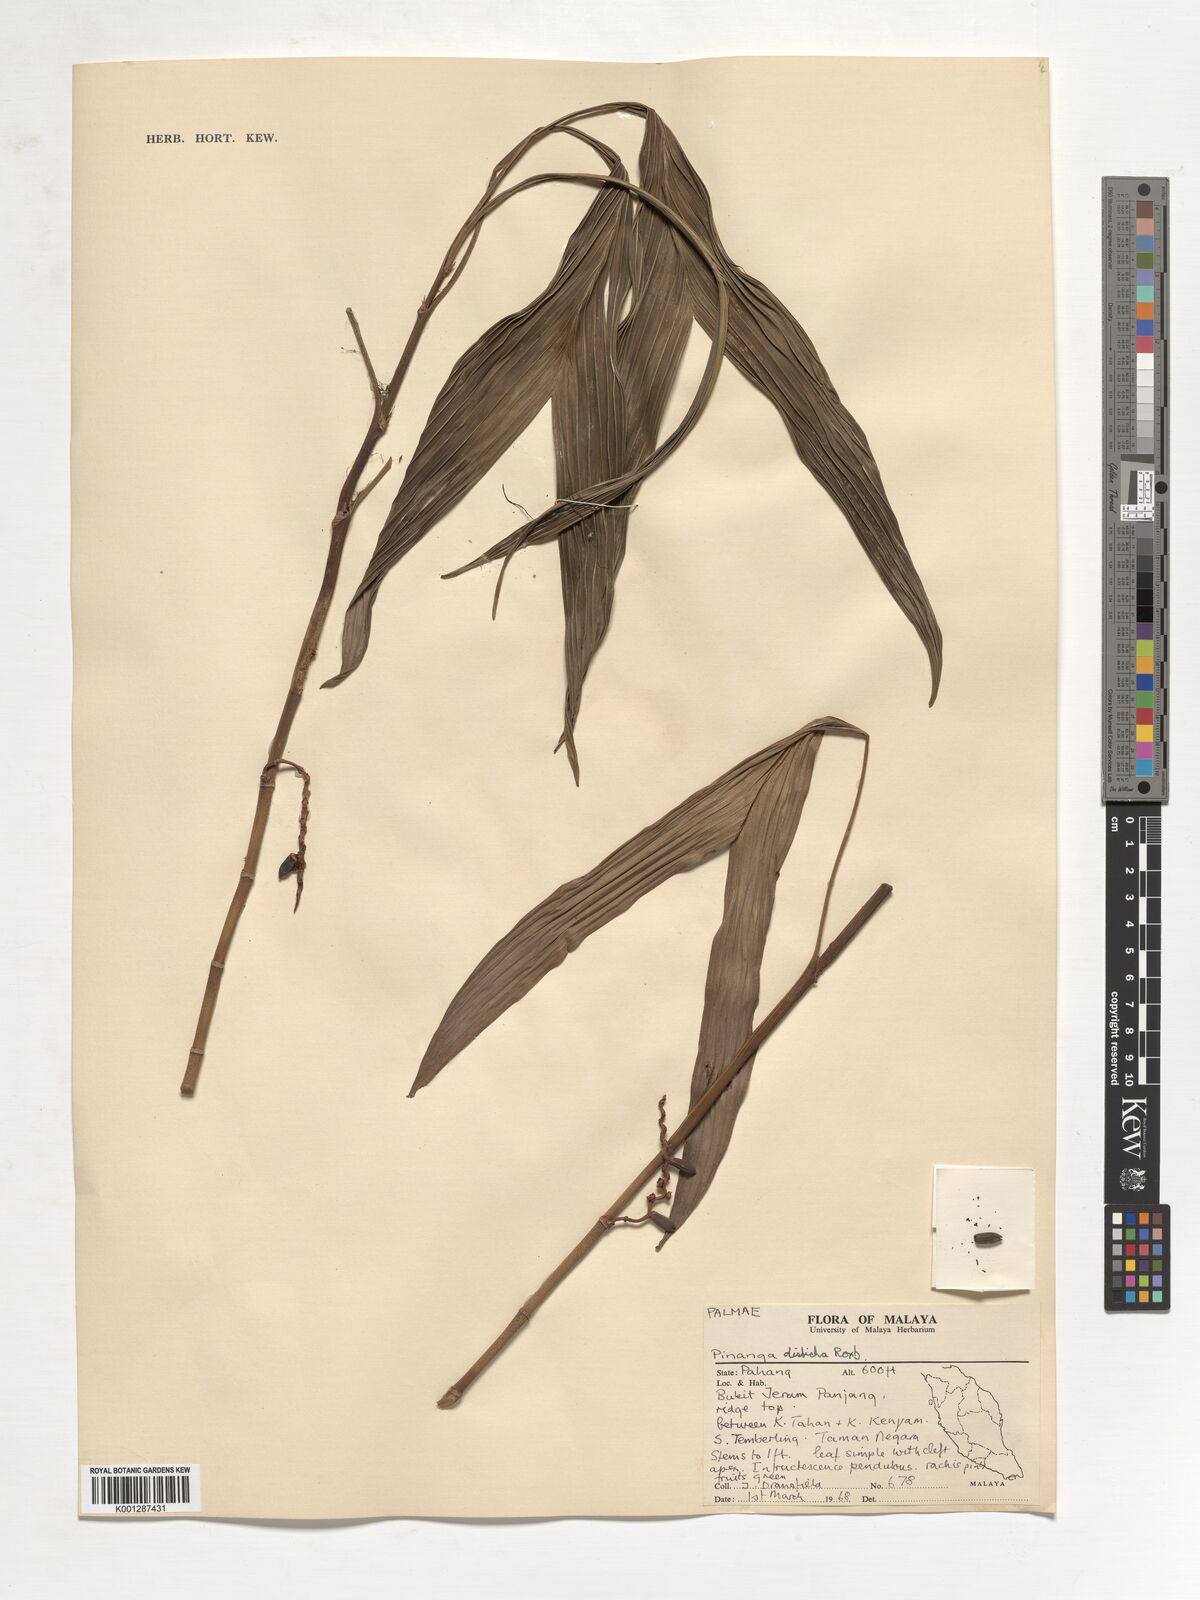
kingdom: Plantae
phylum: Tracheophyta
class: Liliopsida
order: Arecales
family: Arecaceae
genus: Pinanga
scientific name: Pinanga disticha
